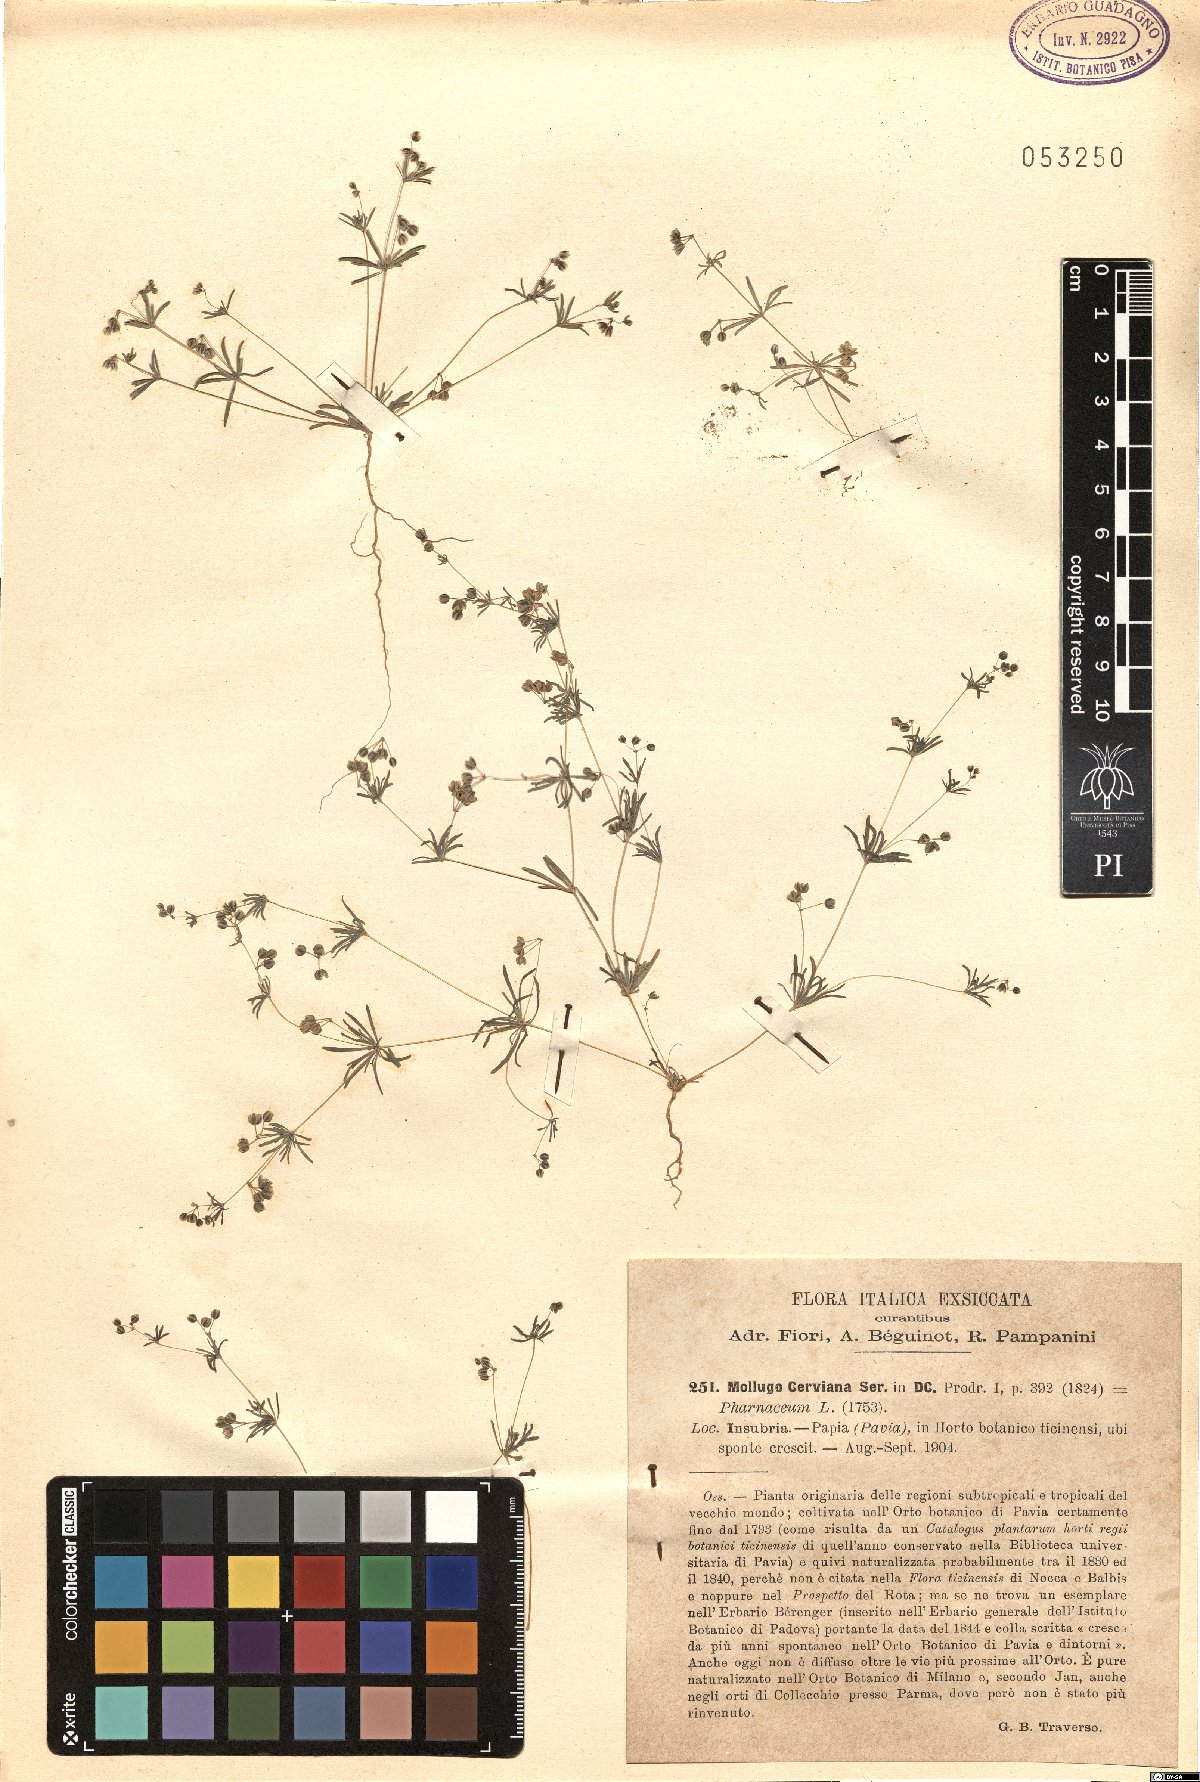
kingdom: Plantae
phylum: Tracheophyta
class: Magnoliopsida
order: Caryophyllales
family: Molluginaceae
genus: Hypertelis
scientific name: Hypertelis cerviana
